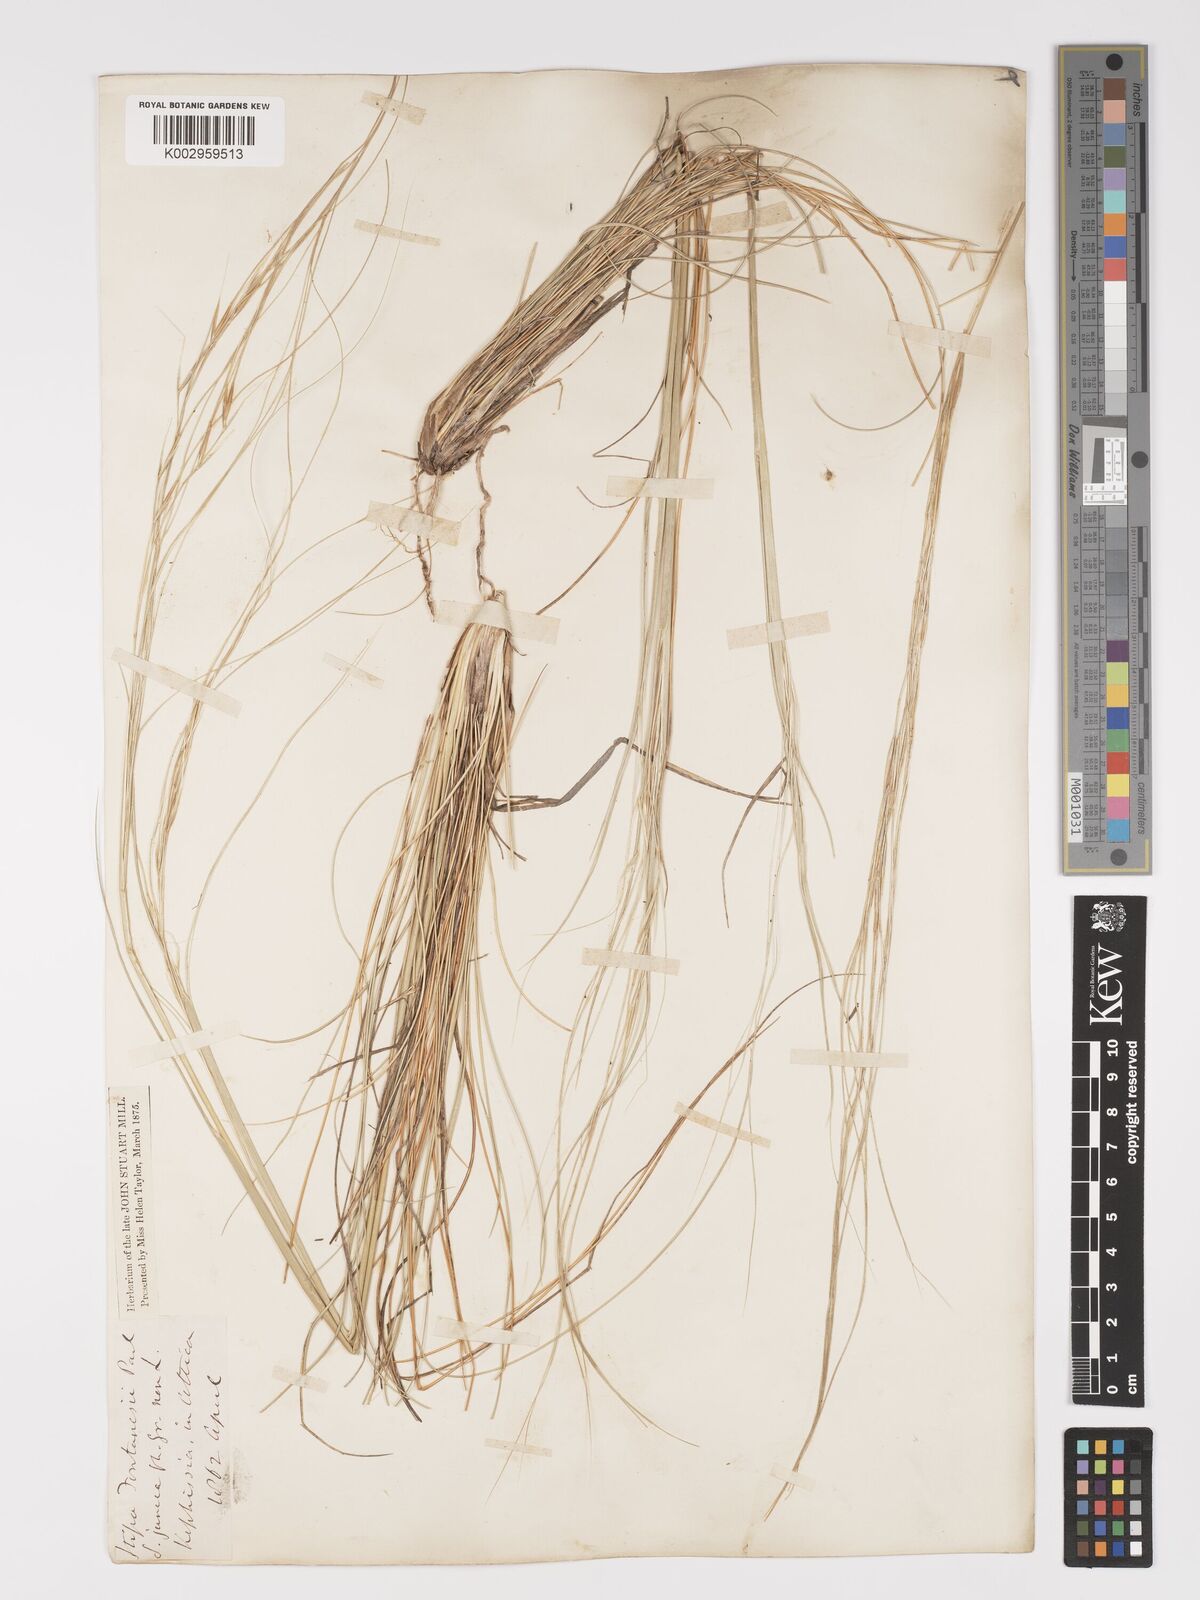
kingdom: Plantae
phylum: Tracheophyta
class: Liliopsida
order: Poales
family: Poaceae
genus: Stipa
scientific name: Stipa holosericea
